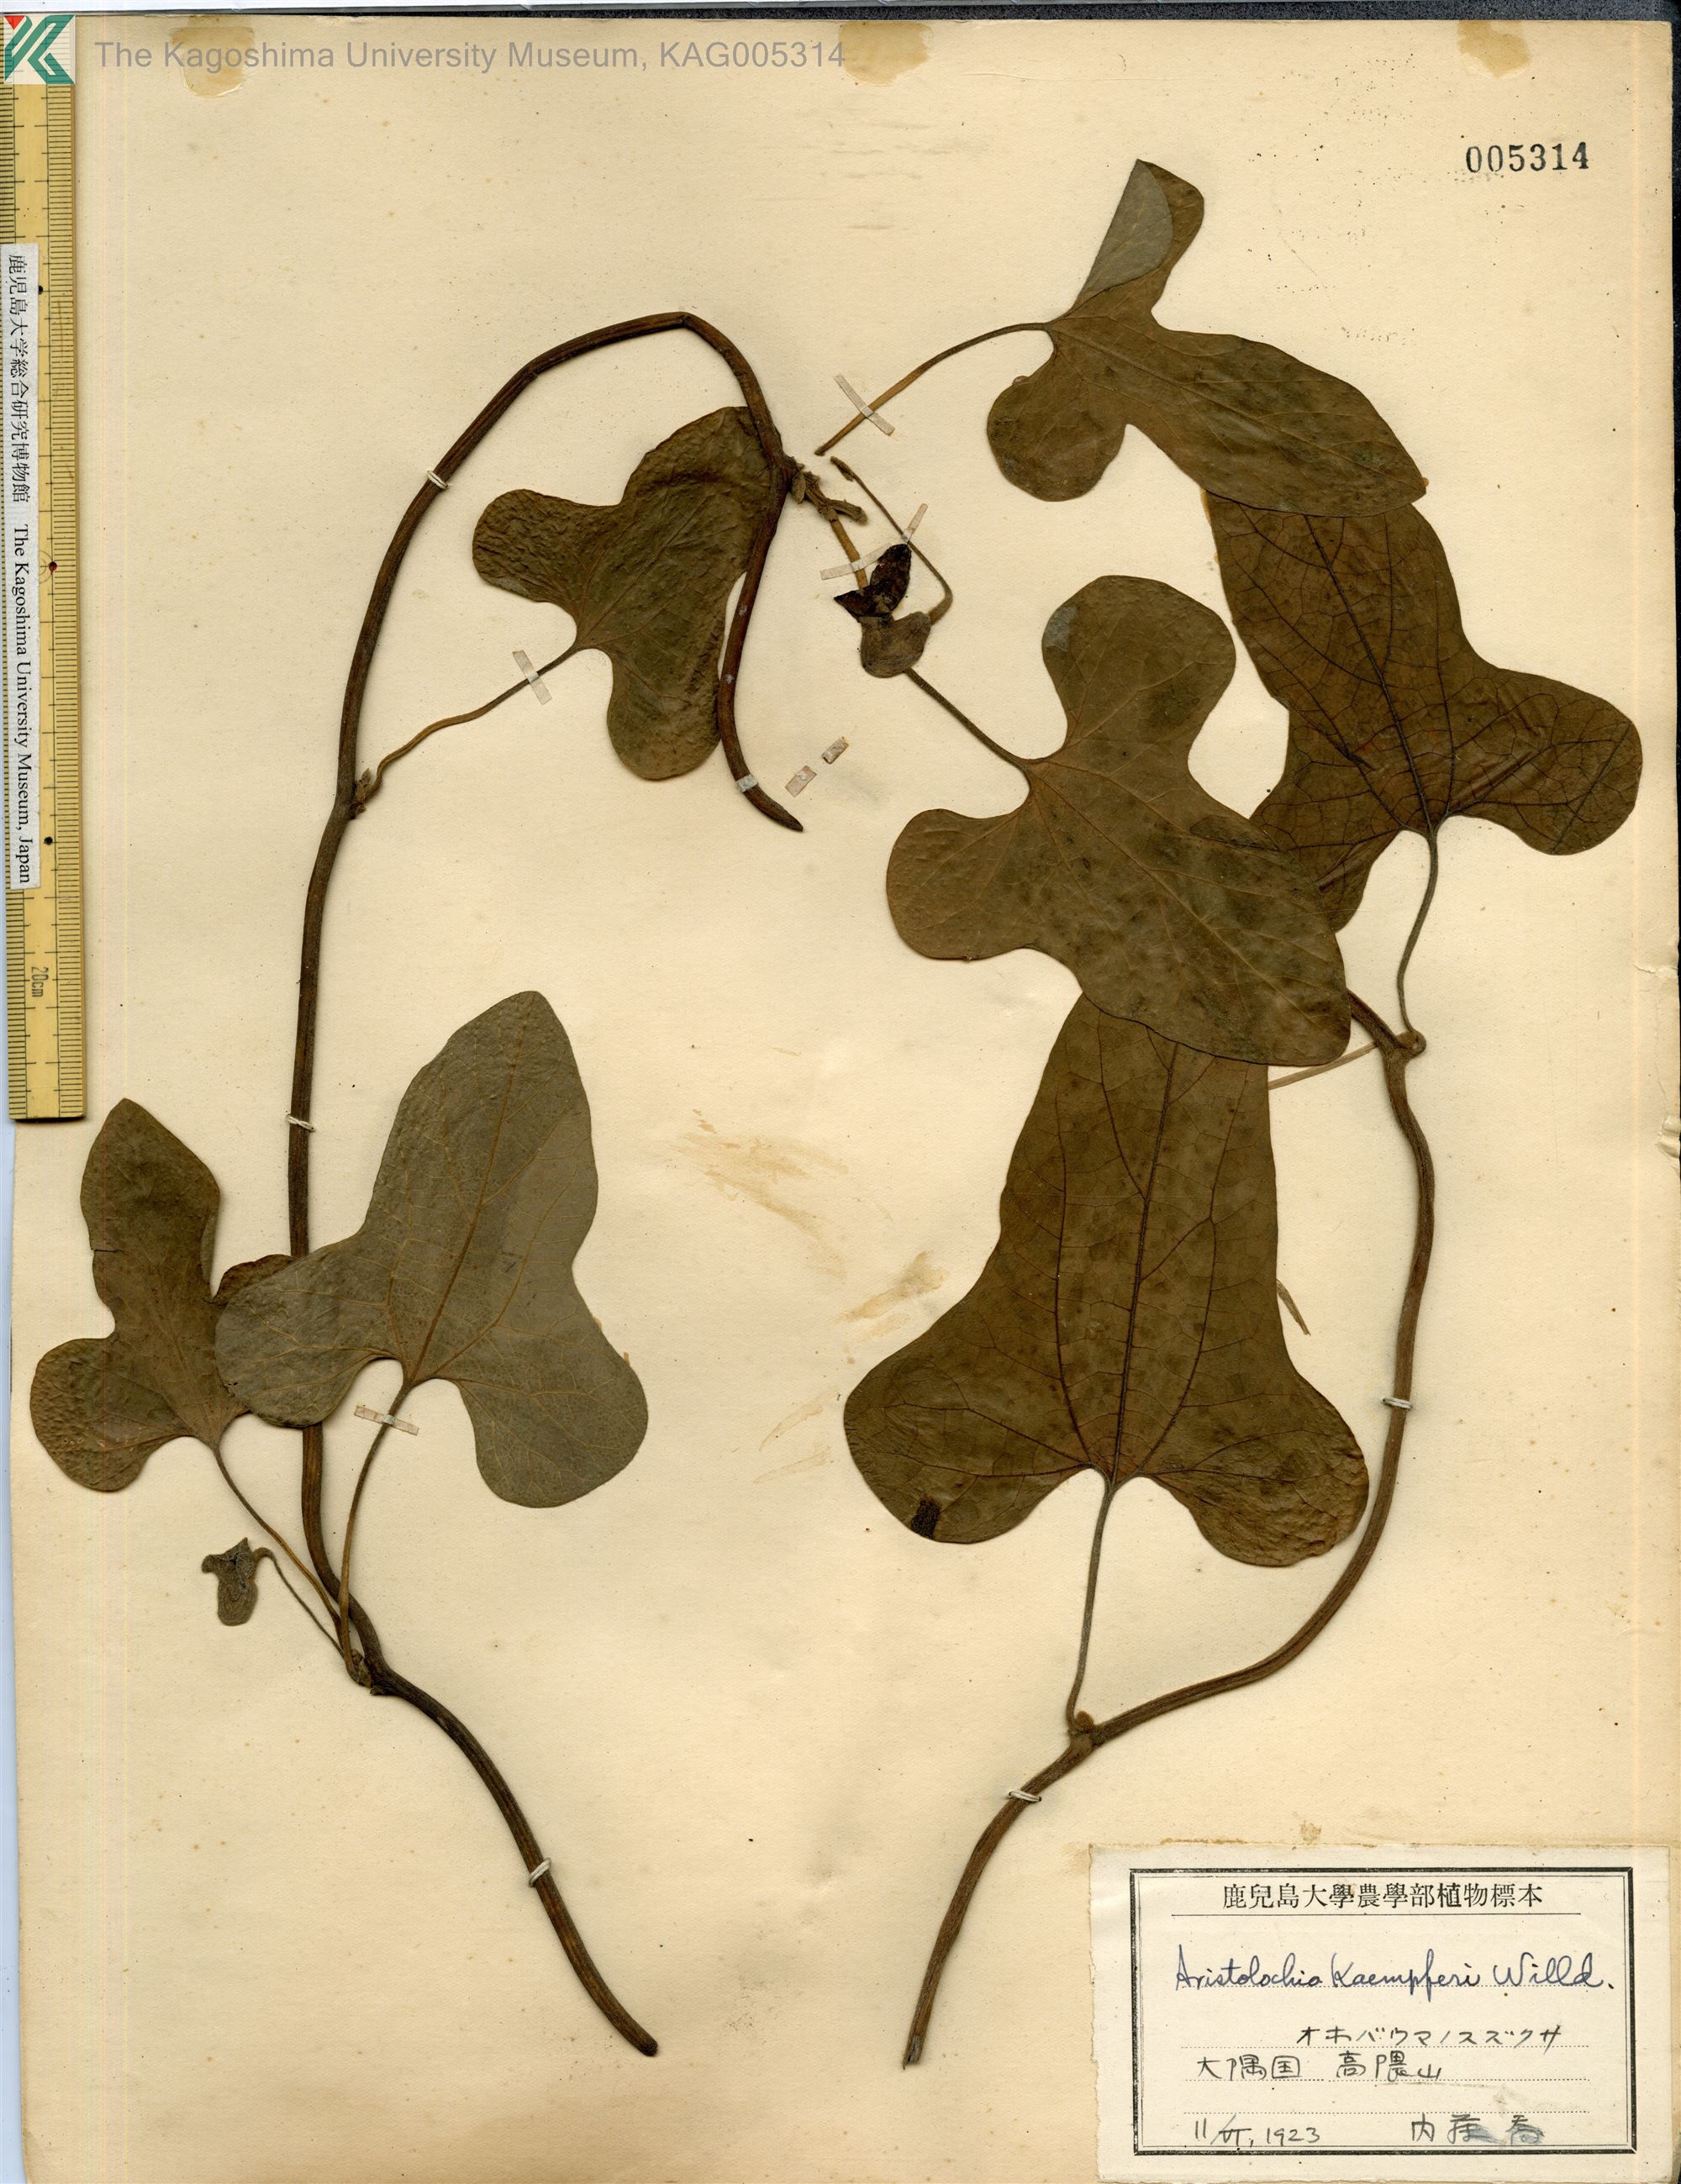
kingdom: Plantae
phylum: Tracheophyta
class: Magnoliopsida
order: Piperales
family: Aristolochiaceae
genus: Isotrema
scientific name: Isotrema kaempferi
